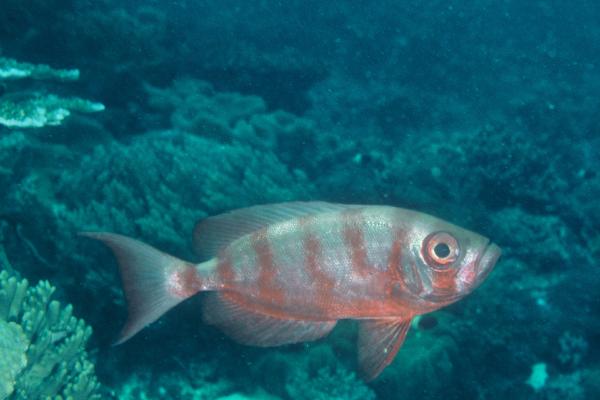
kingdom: Animalia
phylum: Chordata
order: Perciformes
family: Priacanthidae
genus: Priacanthus
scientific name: Priacanthus hamrur
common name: Moontail bullseye
